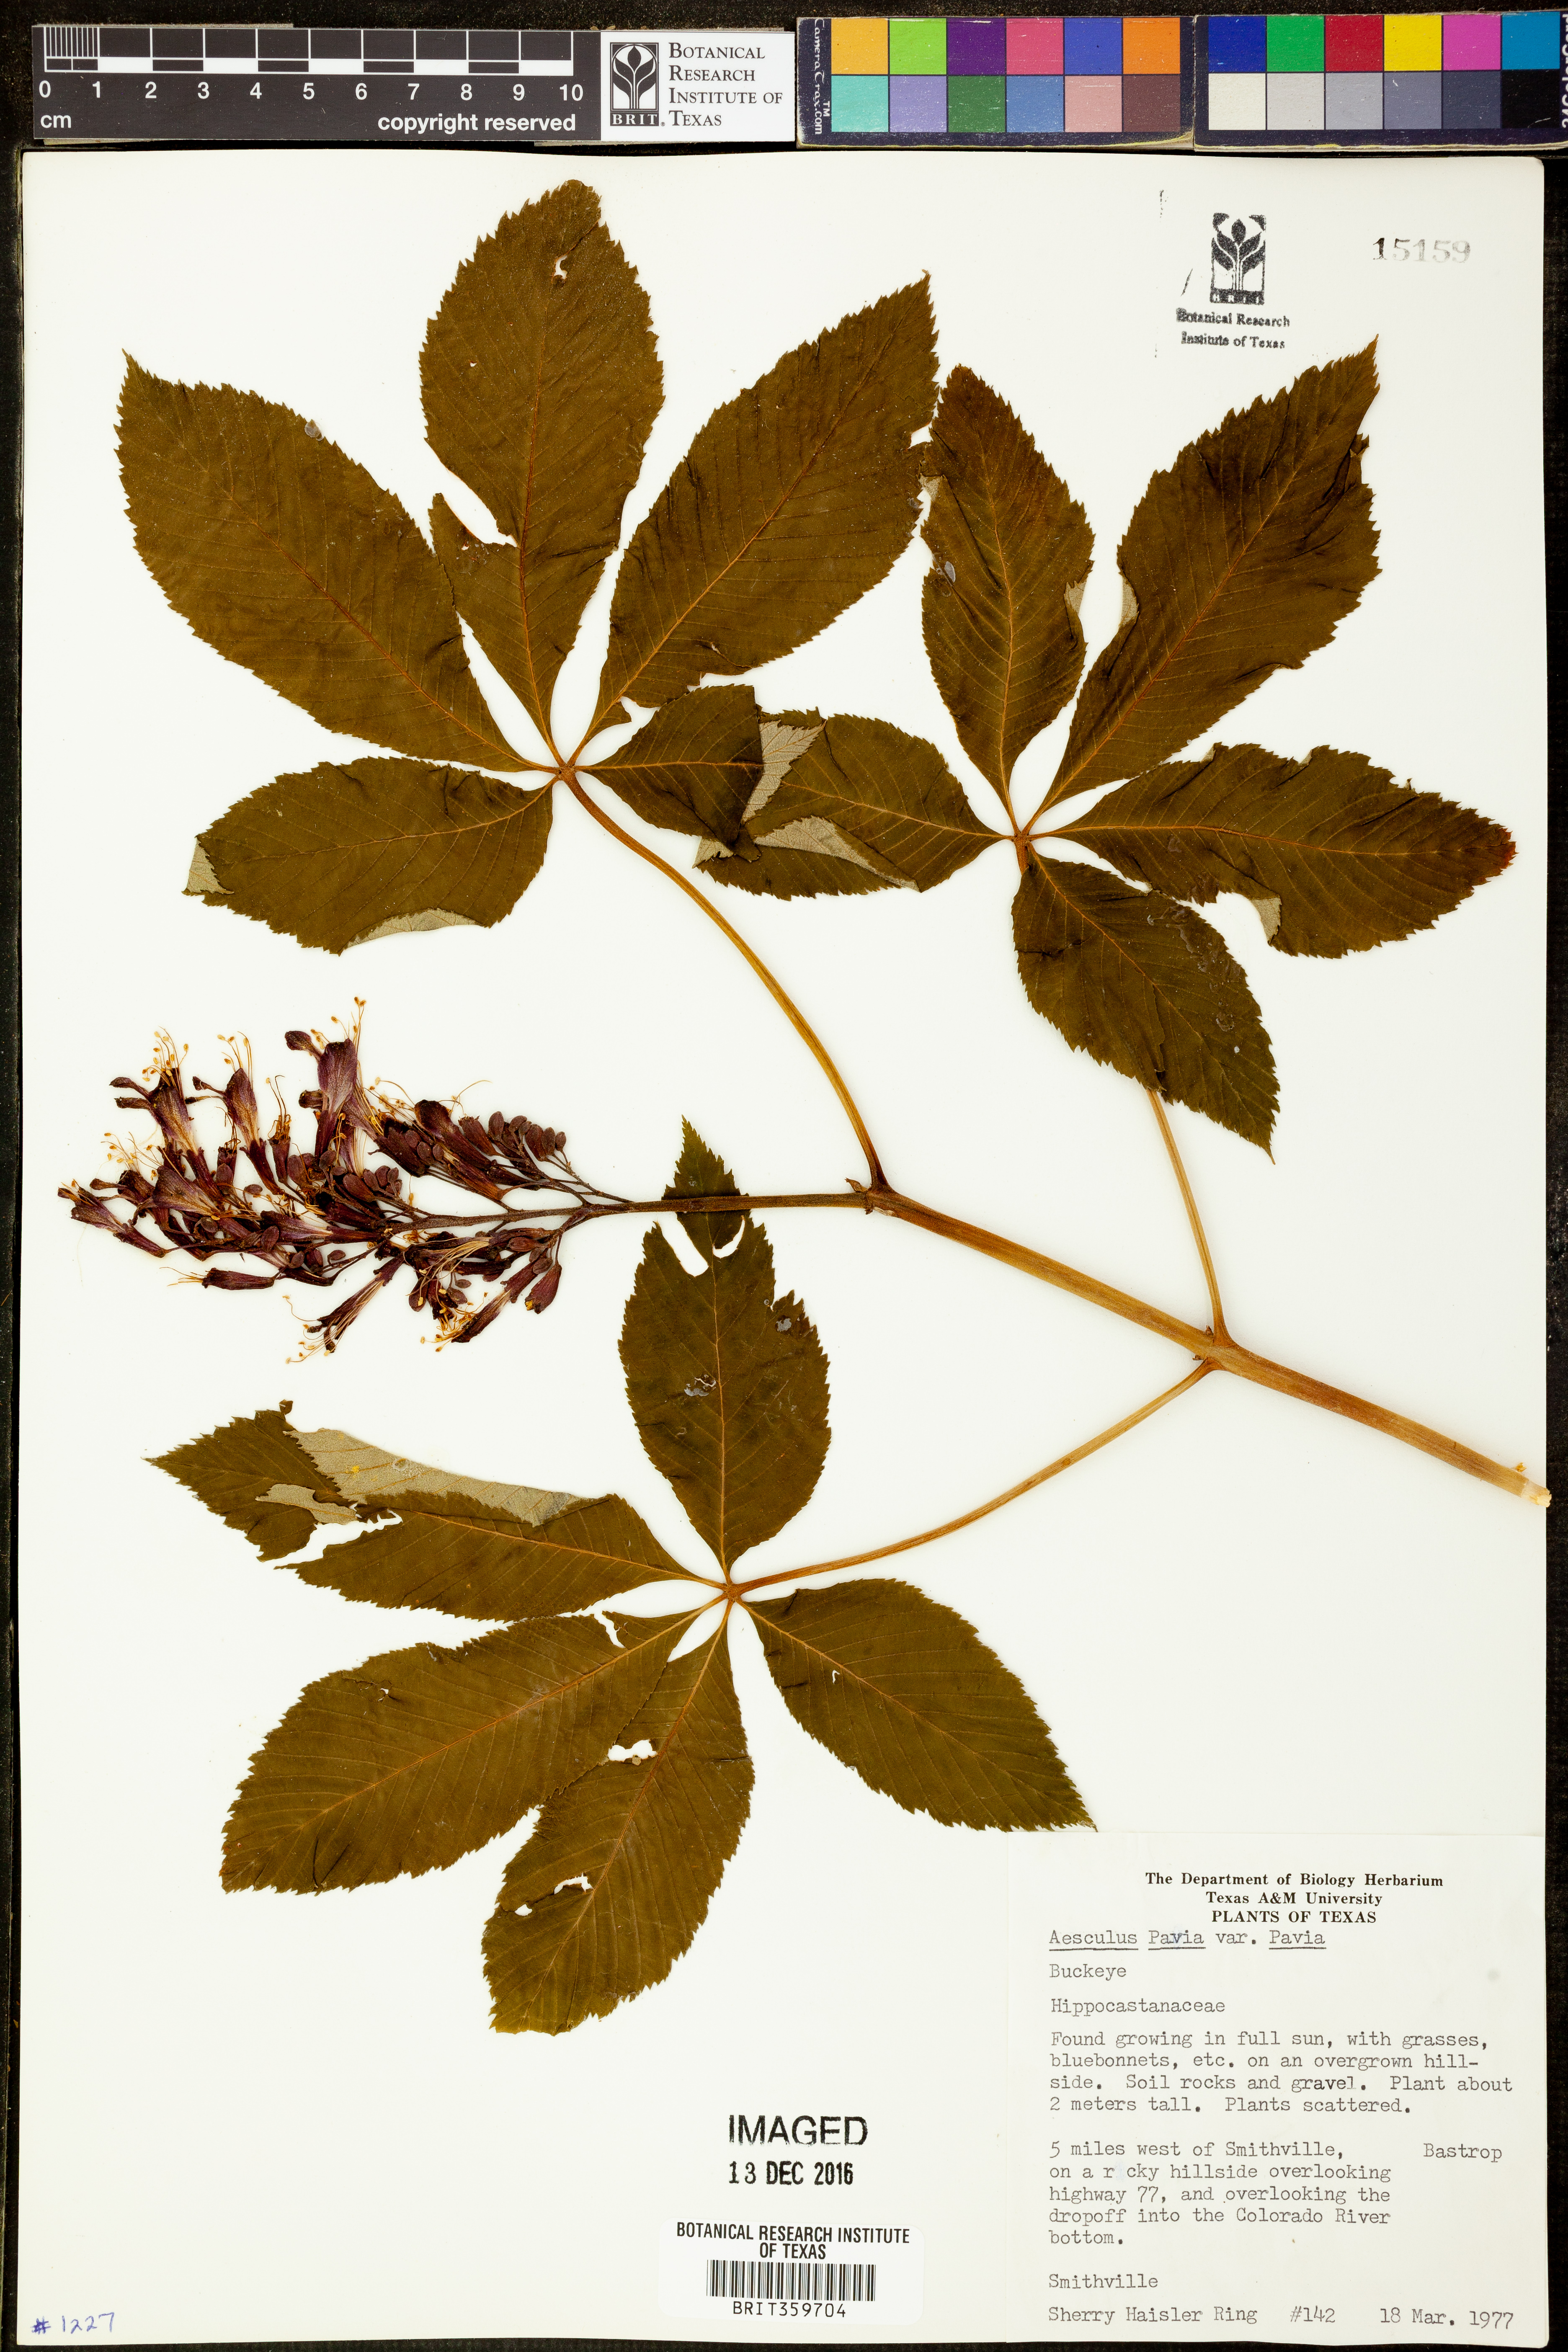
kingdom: Plantae
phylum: Tracheophyta
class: Magnoliopsida
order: Sapindales
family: Sapindaceae
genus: Aesculus
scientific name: Aesculus pavia
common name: Red buckeye
